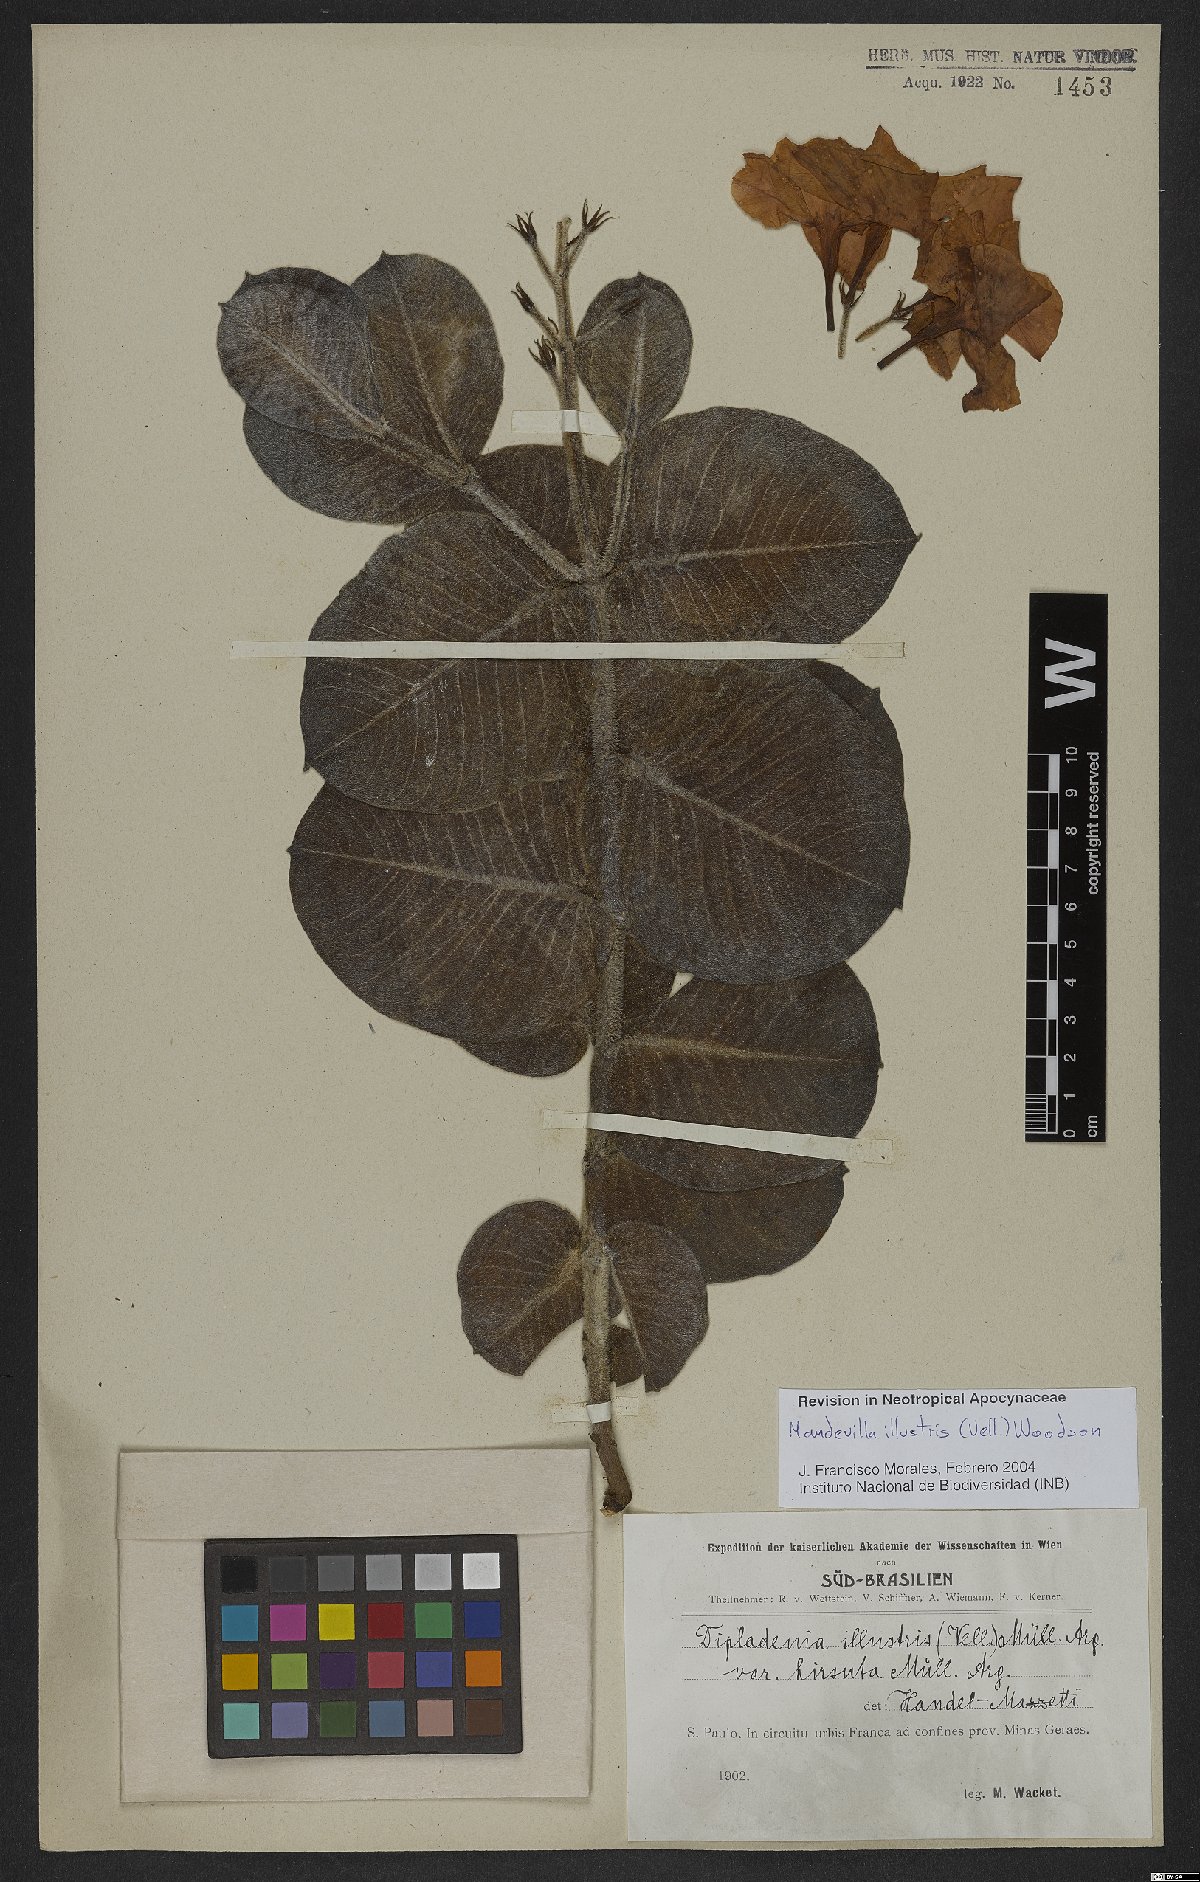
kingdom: Plantae
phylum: Tracheophyta
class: Magnoliopsida
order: Gentianales
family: Apocynaceae
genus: Mandevilla
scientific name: Mandevilla illustris
